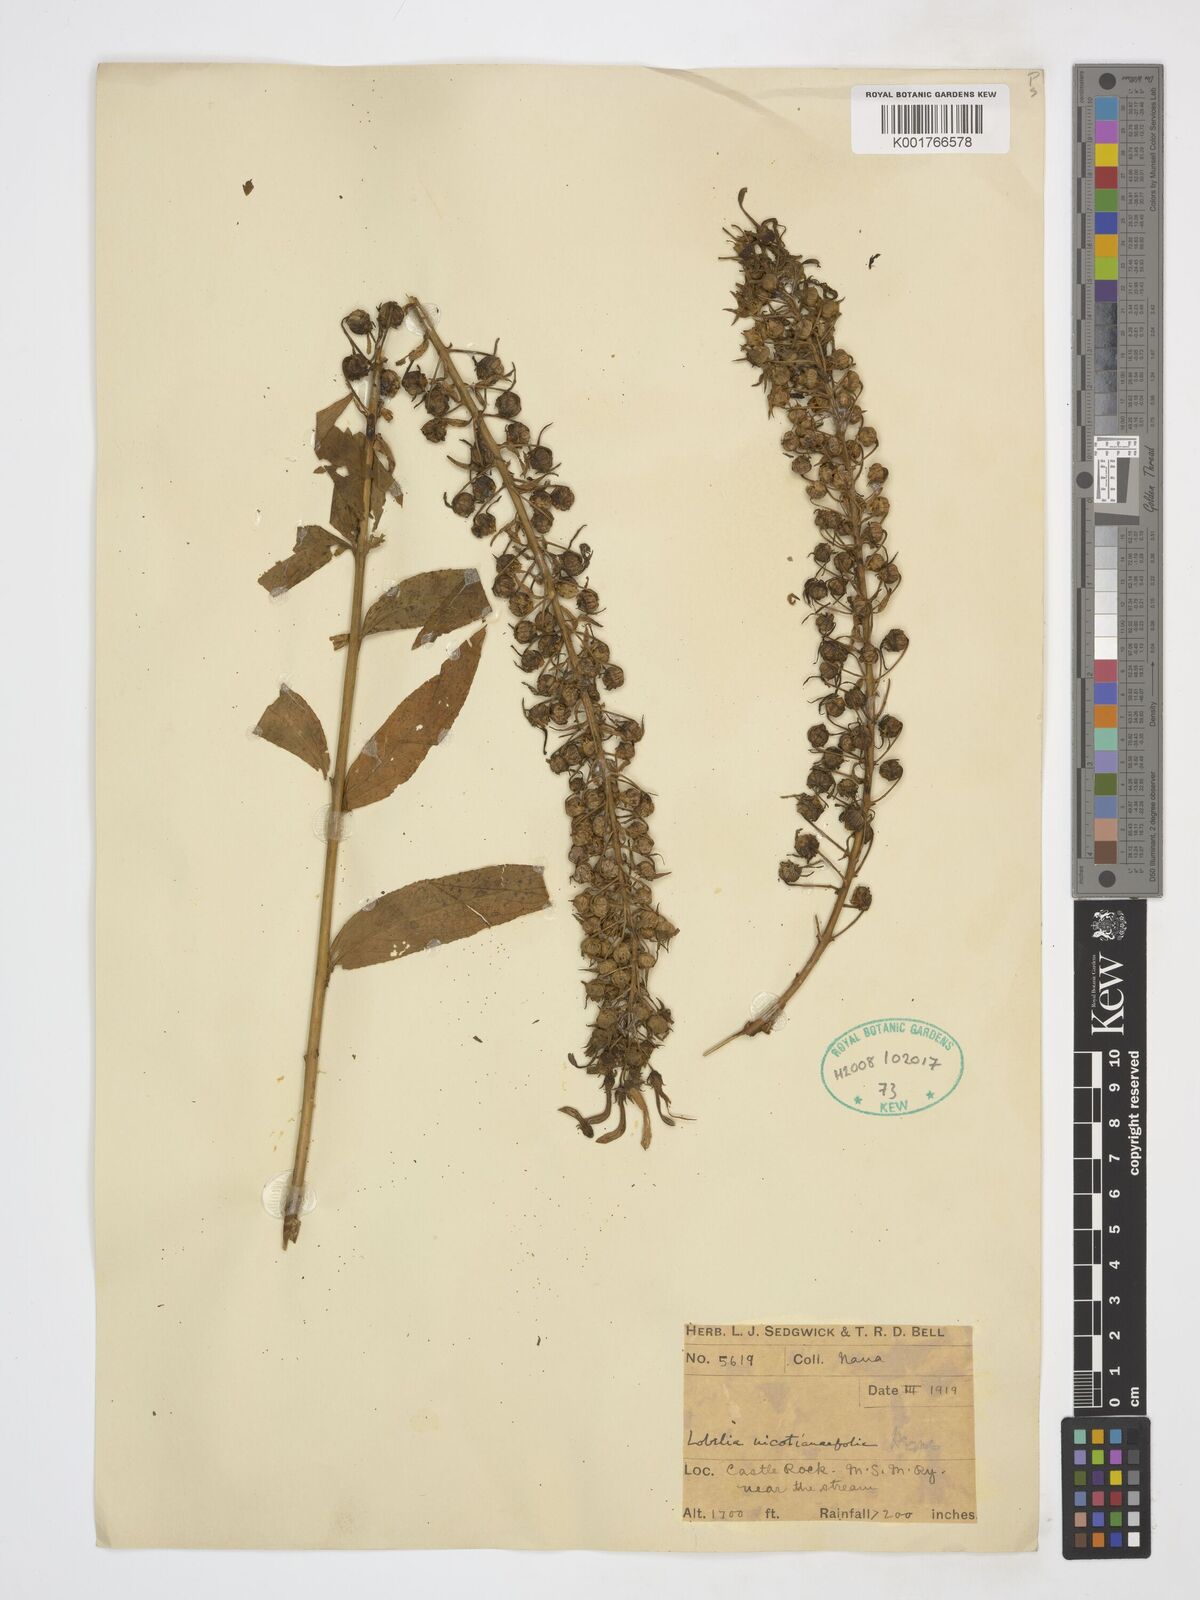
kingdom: Plantae
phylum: Tracheophyta
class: Magnoliopsida
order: Asterales
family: Campanulaceae
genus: Lobelia
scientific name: Lobelia nicotianifolia
